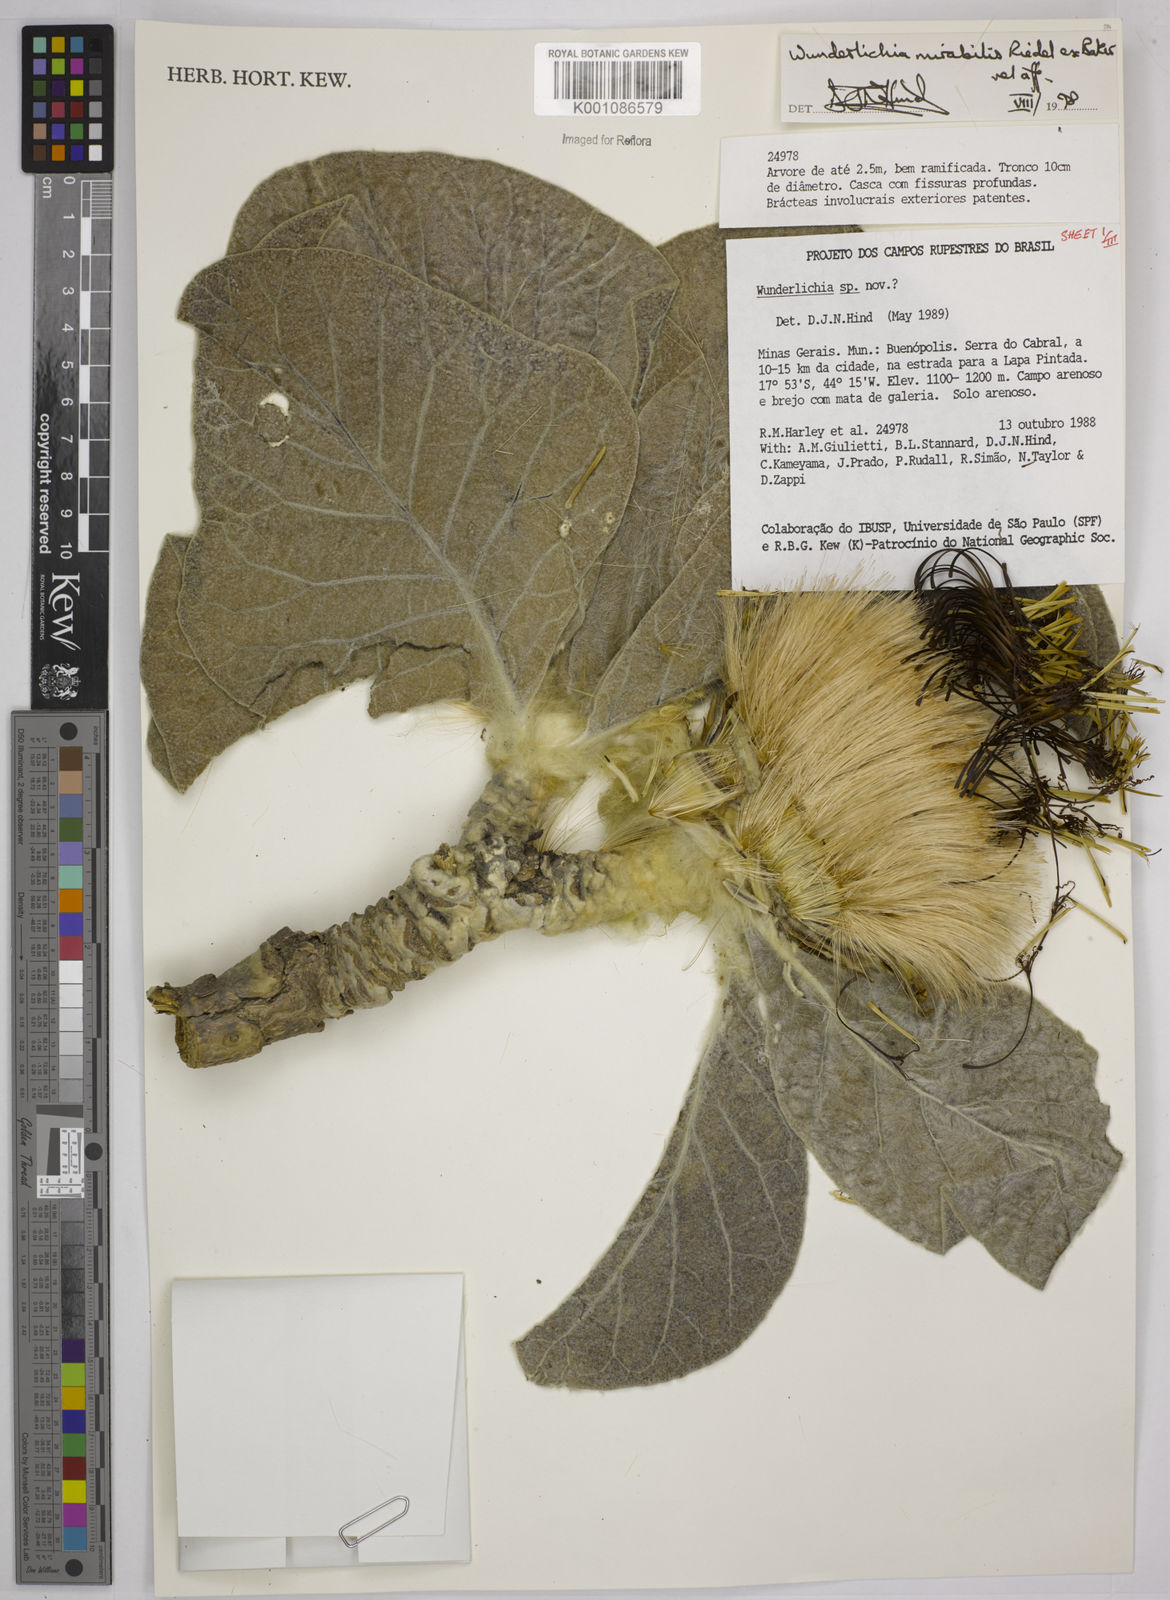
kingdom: Plantae
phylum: Tracheophyta
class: Magnoliopsida
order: Asterales
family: Asteraceae
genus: Wunderlichia
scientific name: Wunderlichia mirabilis
